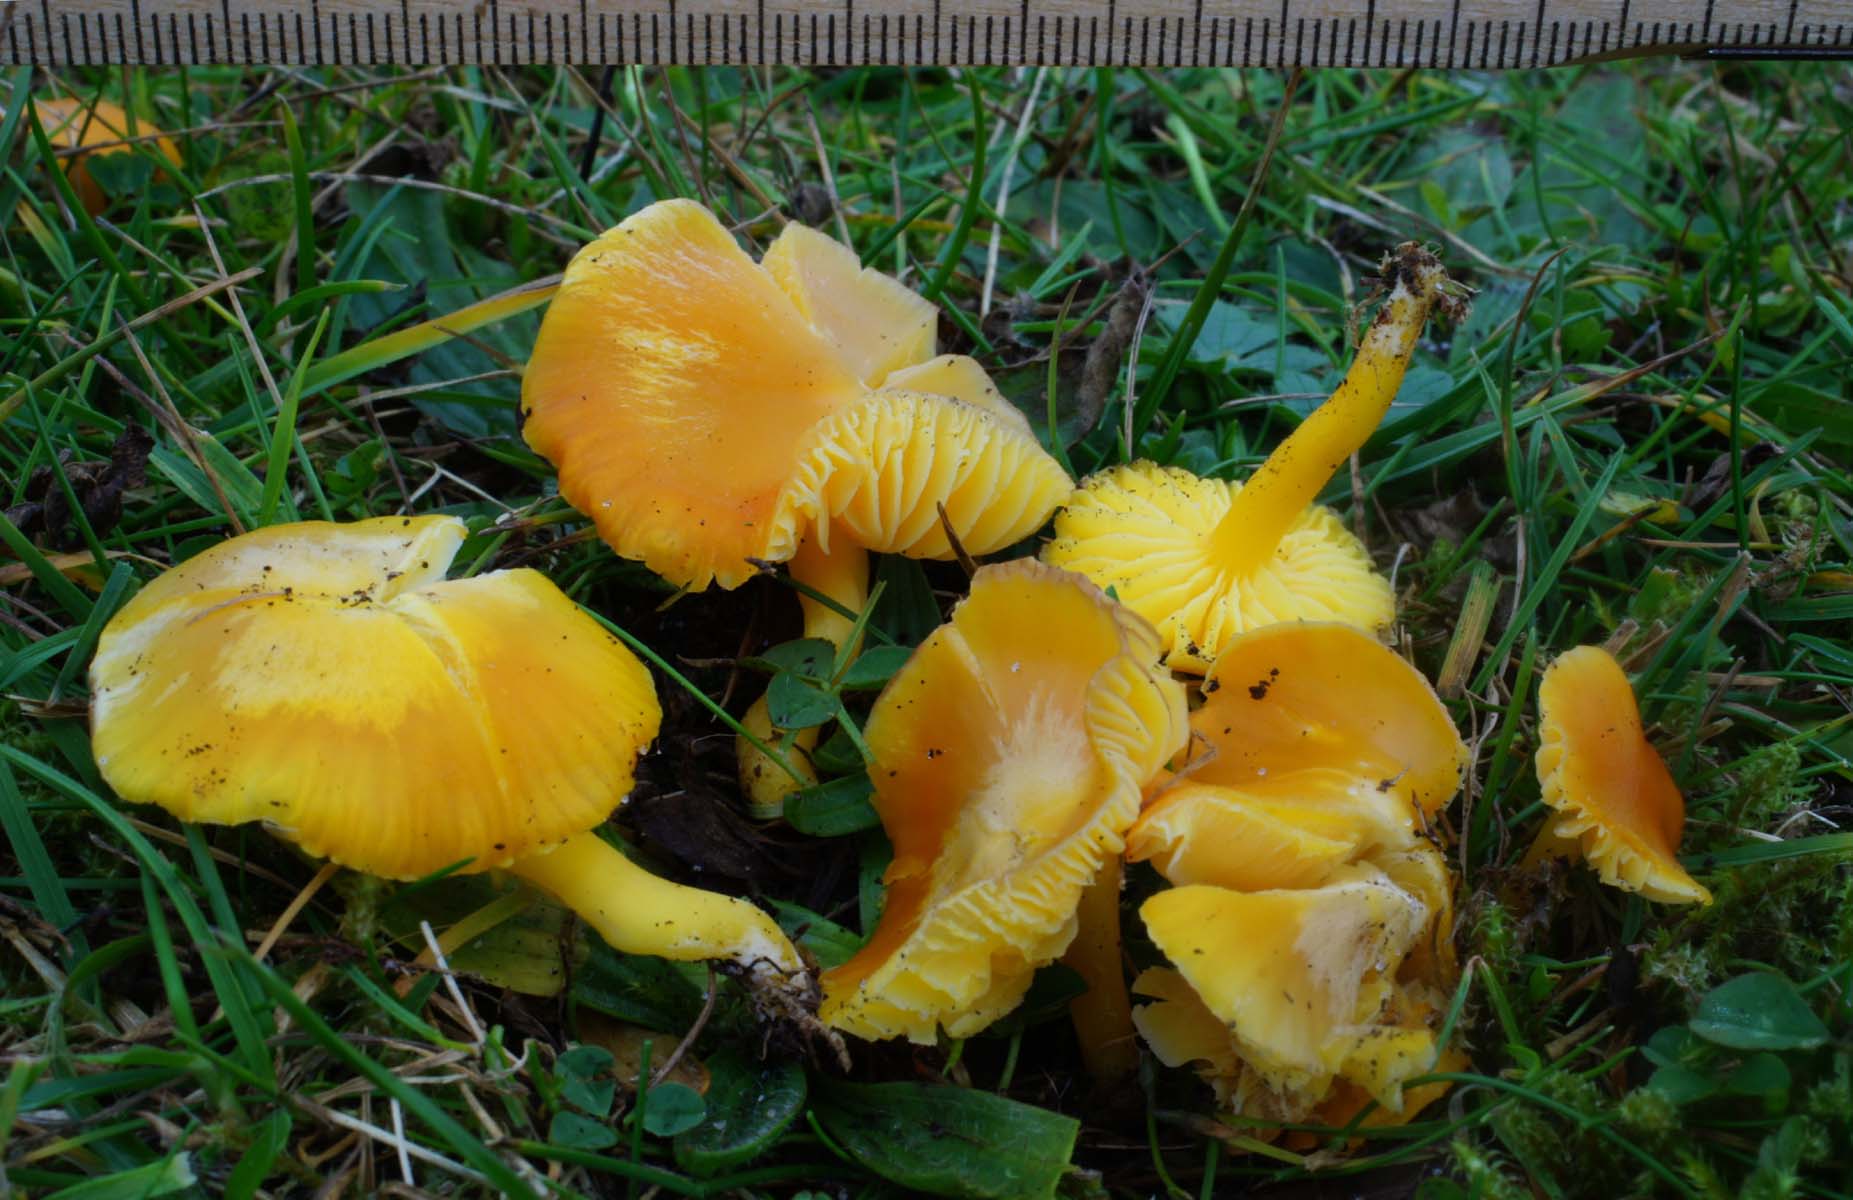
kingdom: Fungi
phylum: Basidiomycota
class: Agaricomycetes
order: Agaricales
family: Hygrophoraceae
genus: Hygrocybe
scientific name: Hygrocybe ceracea
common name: voksgul vokshat
